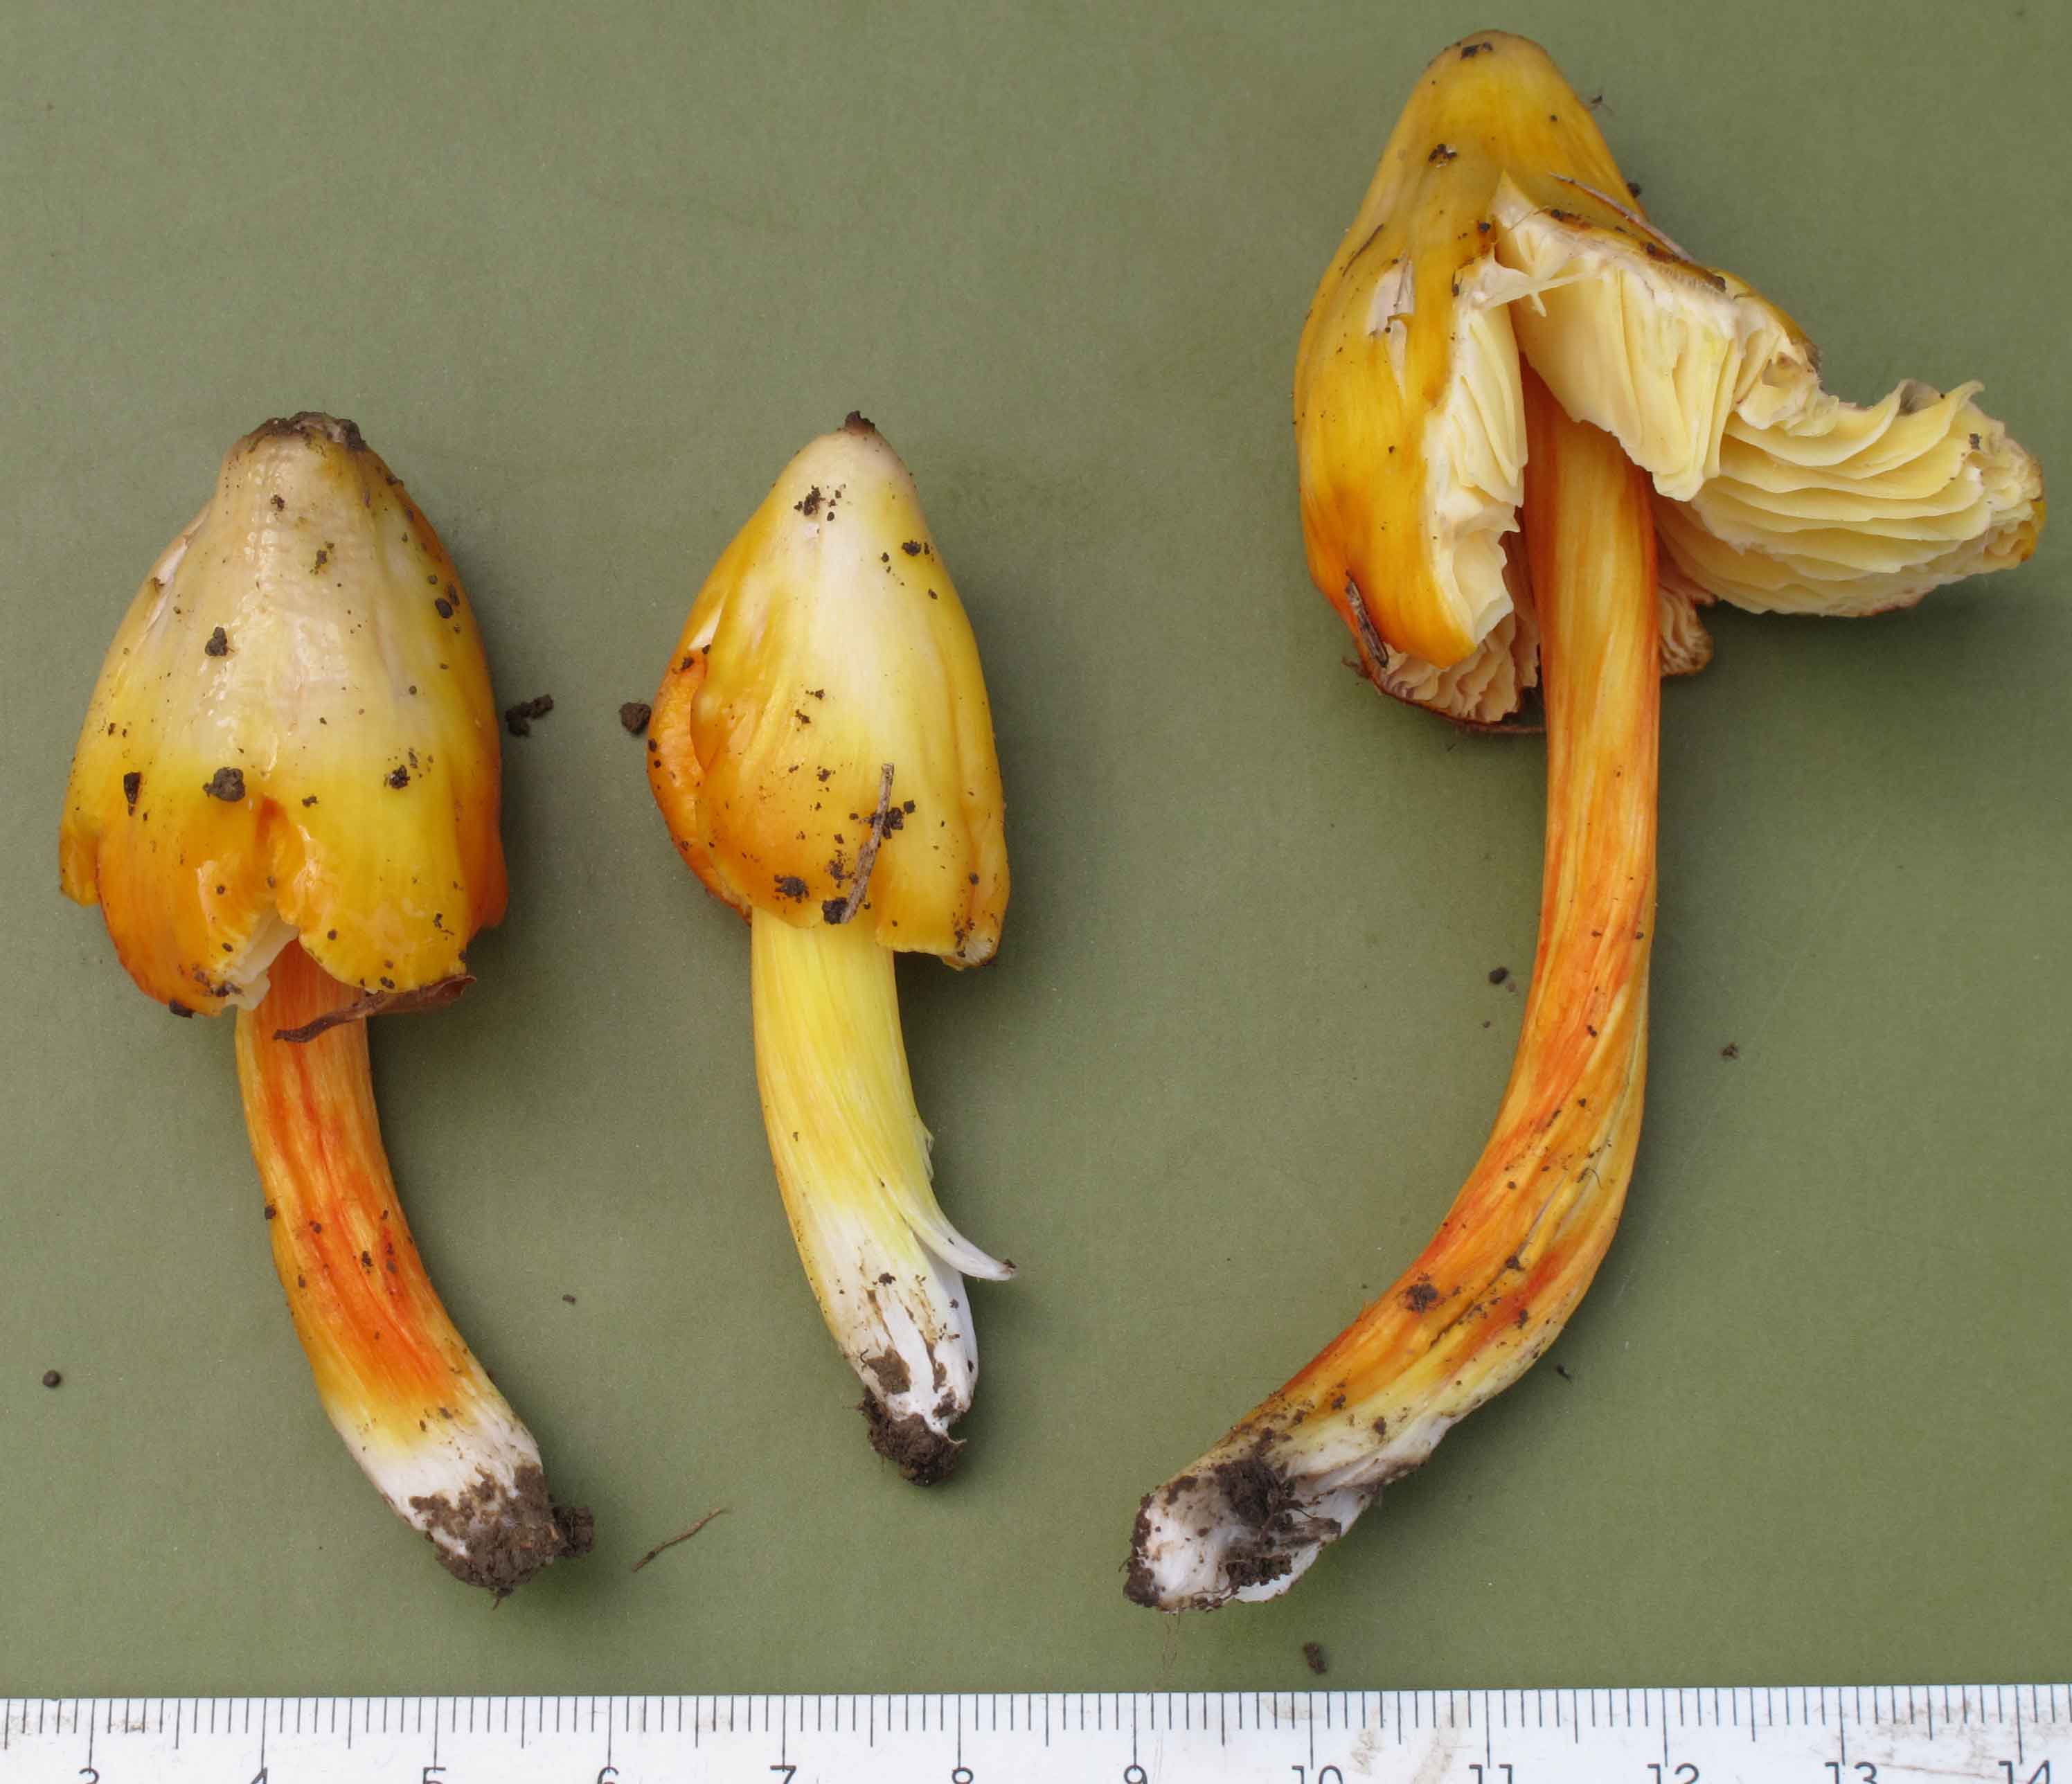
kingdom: Fungi
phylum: Basidiomycota
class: Agaricomycetes
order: Agaricales
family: Hygrophoraceae
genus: Hygrocybe
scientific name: Hygrocybe acutoconica
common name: Konrads vokshat
